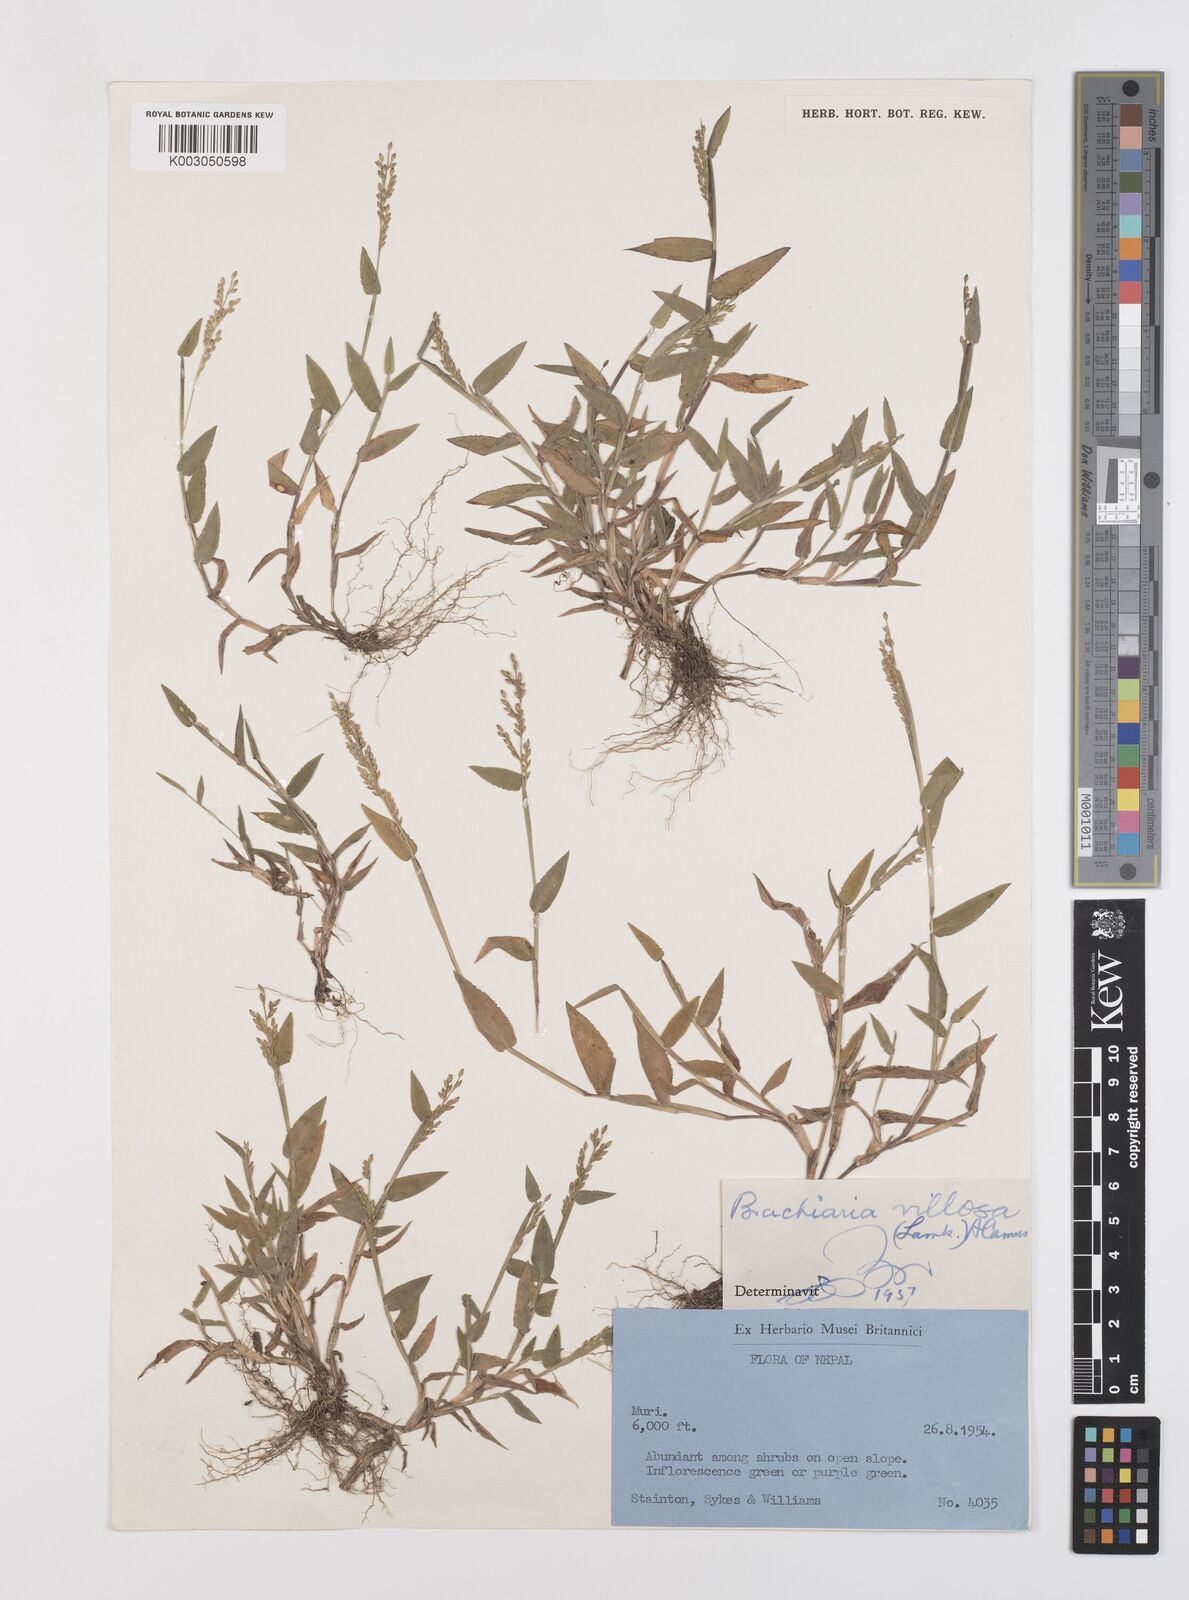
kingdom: Plantae
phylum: Tracheophyta
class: Liliopsida
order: Poales
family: Poaceae
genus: Urochloa
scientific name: Urochloa villosa
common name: Hairy signalgrass
